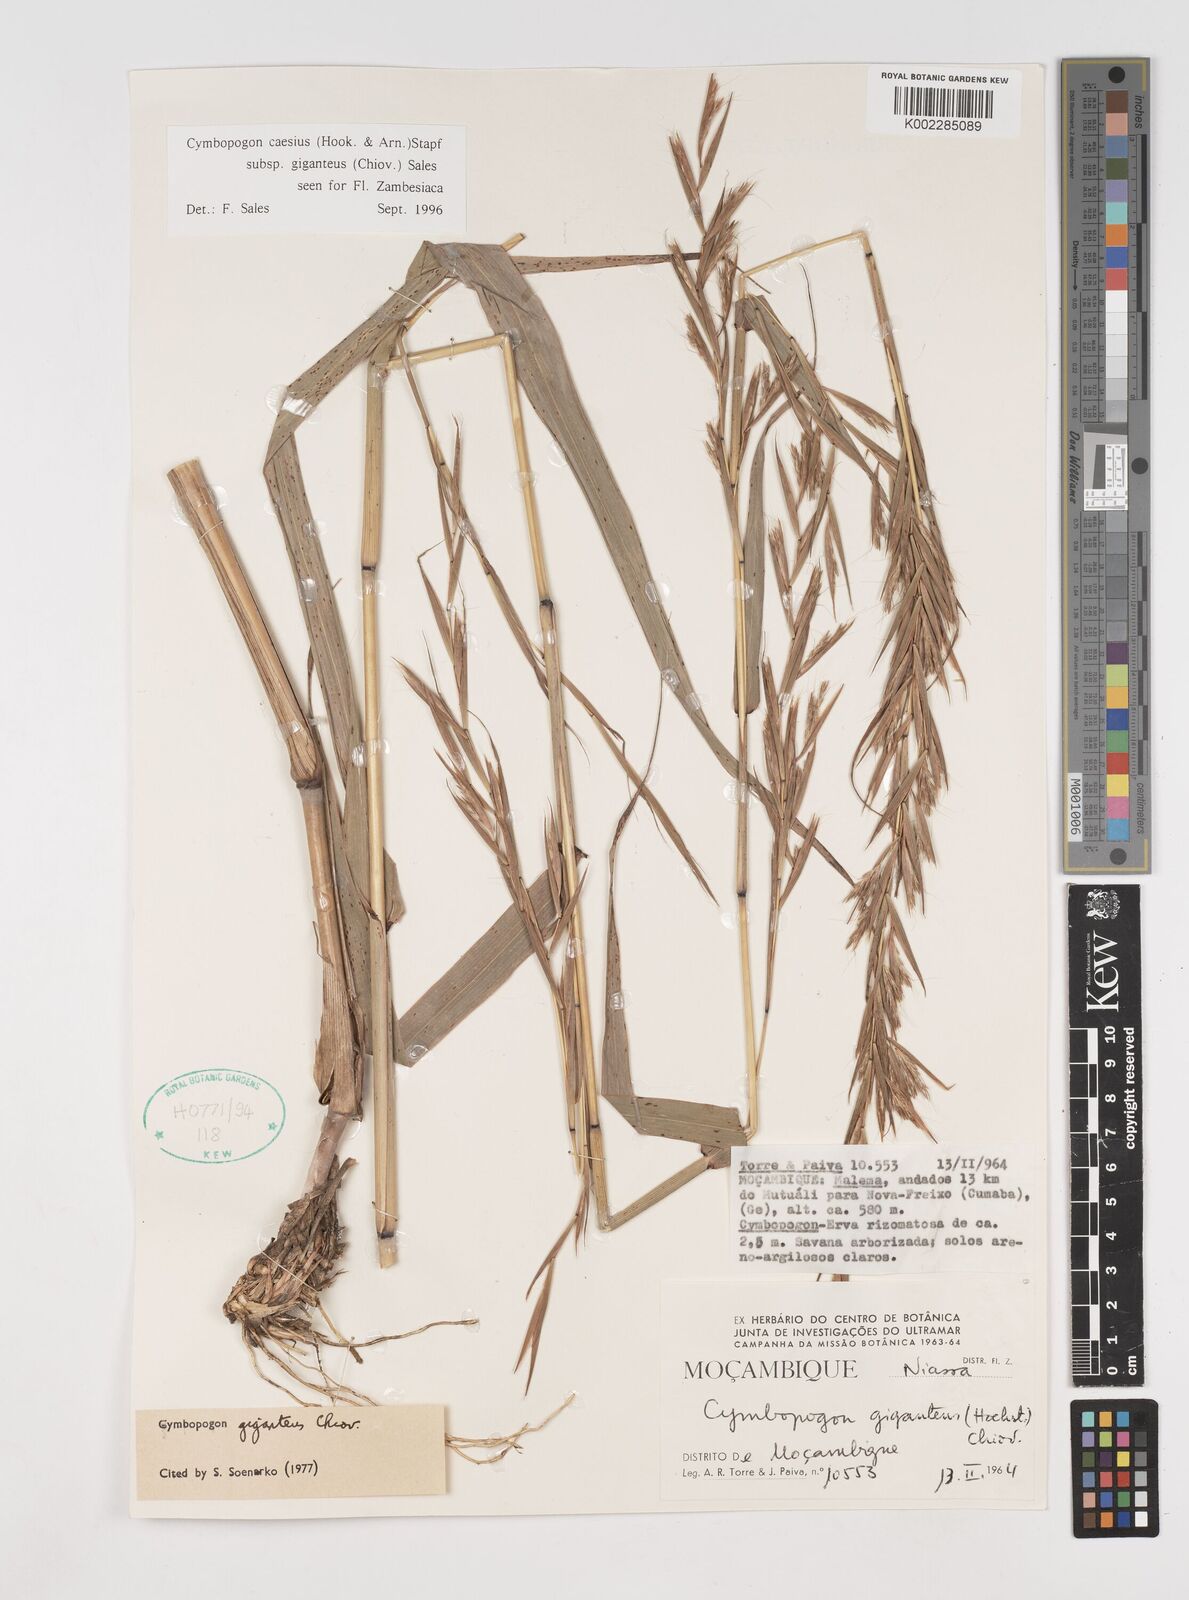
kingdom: Plantae
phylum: Tracheophyta
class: Liliopsida
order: Poales
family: Poaceae
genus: Cymbopogon
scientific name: Cymbopogon giganteus
